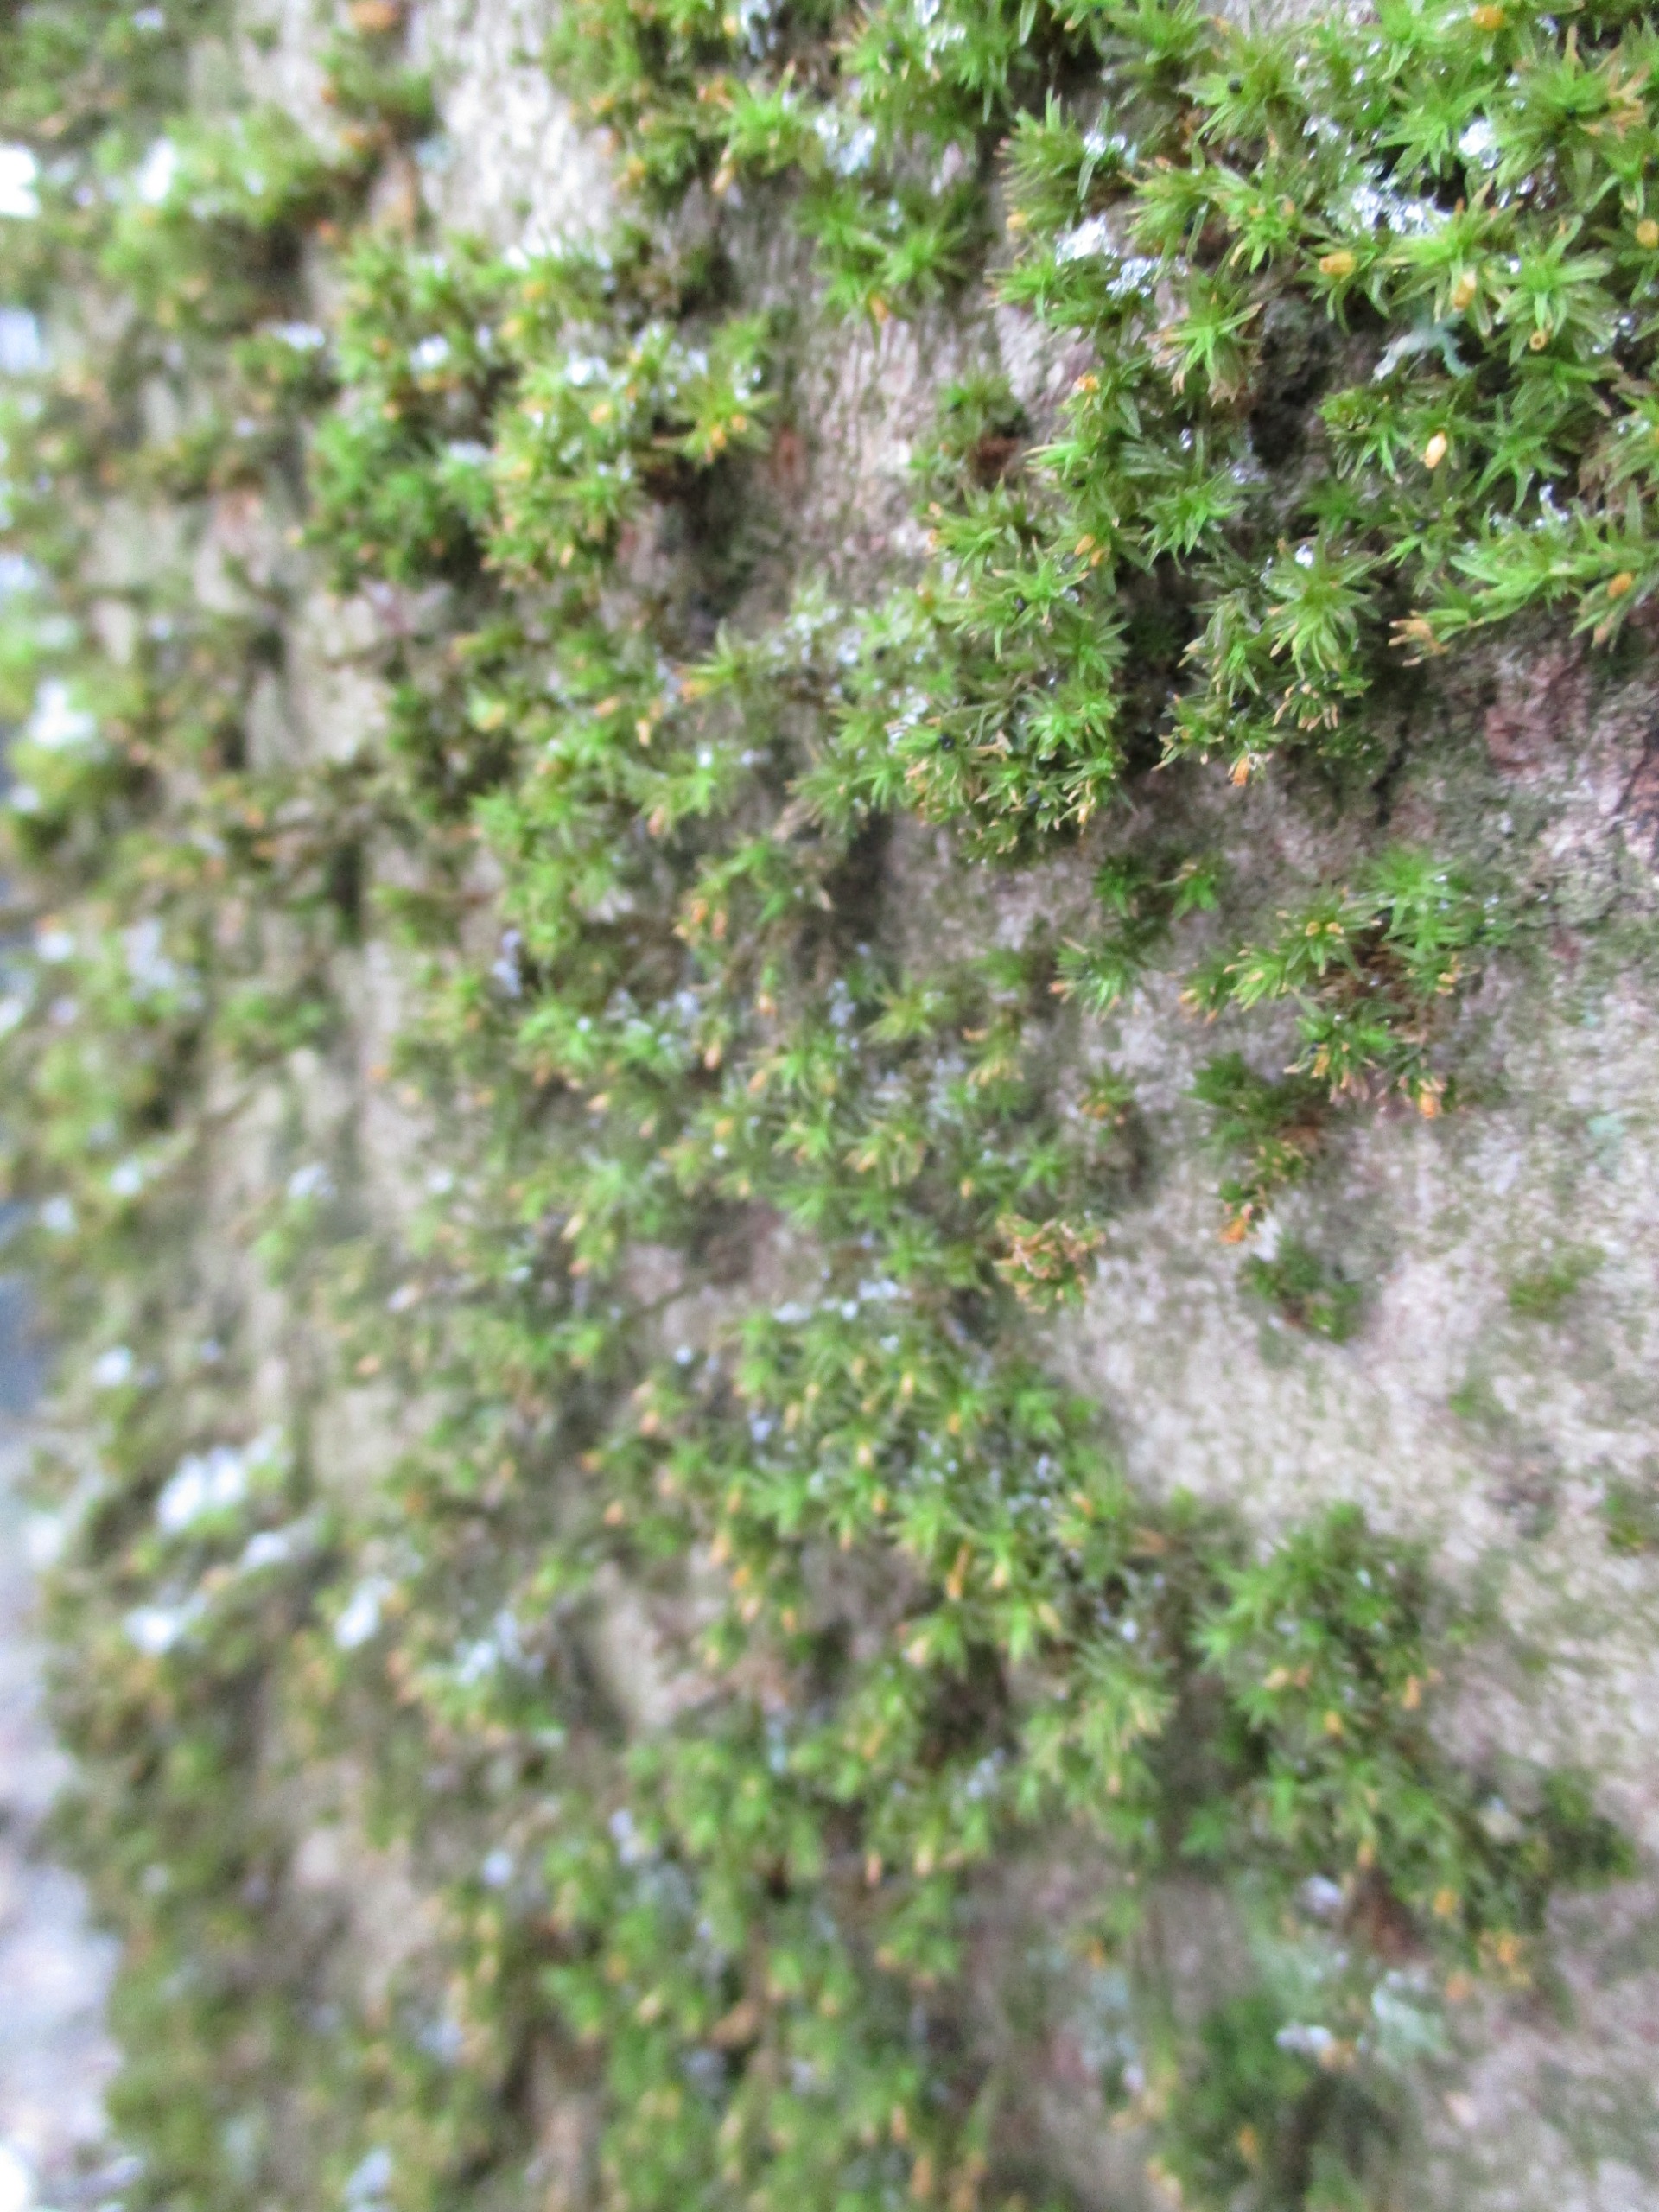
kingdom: Plantae
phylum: Bryophyta
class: Bryopsida
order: Orthotrichales
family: Orthotrichaceae
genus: Orthotrichum
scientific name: Orthotrichum
